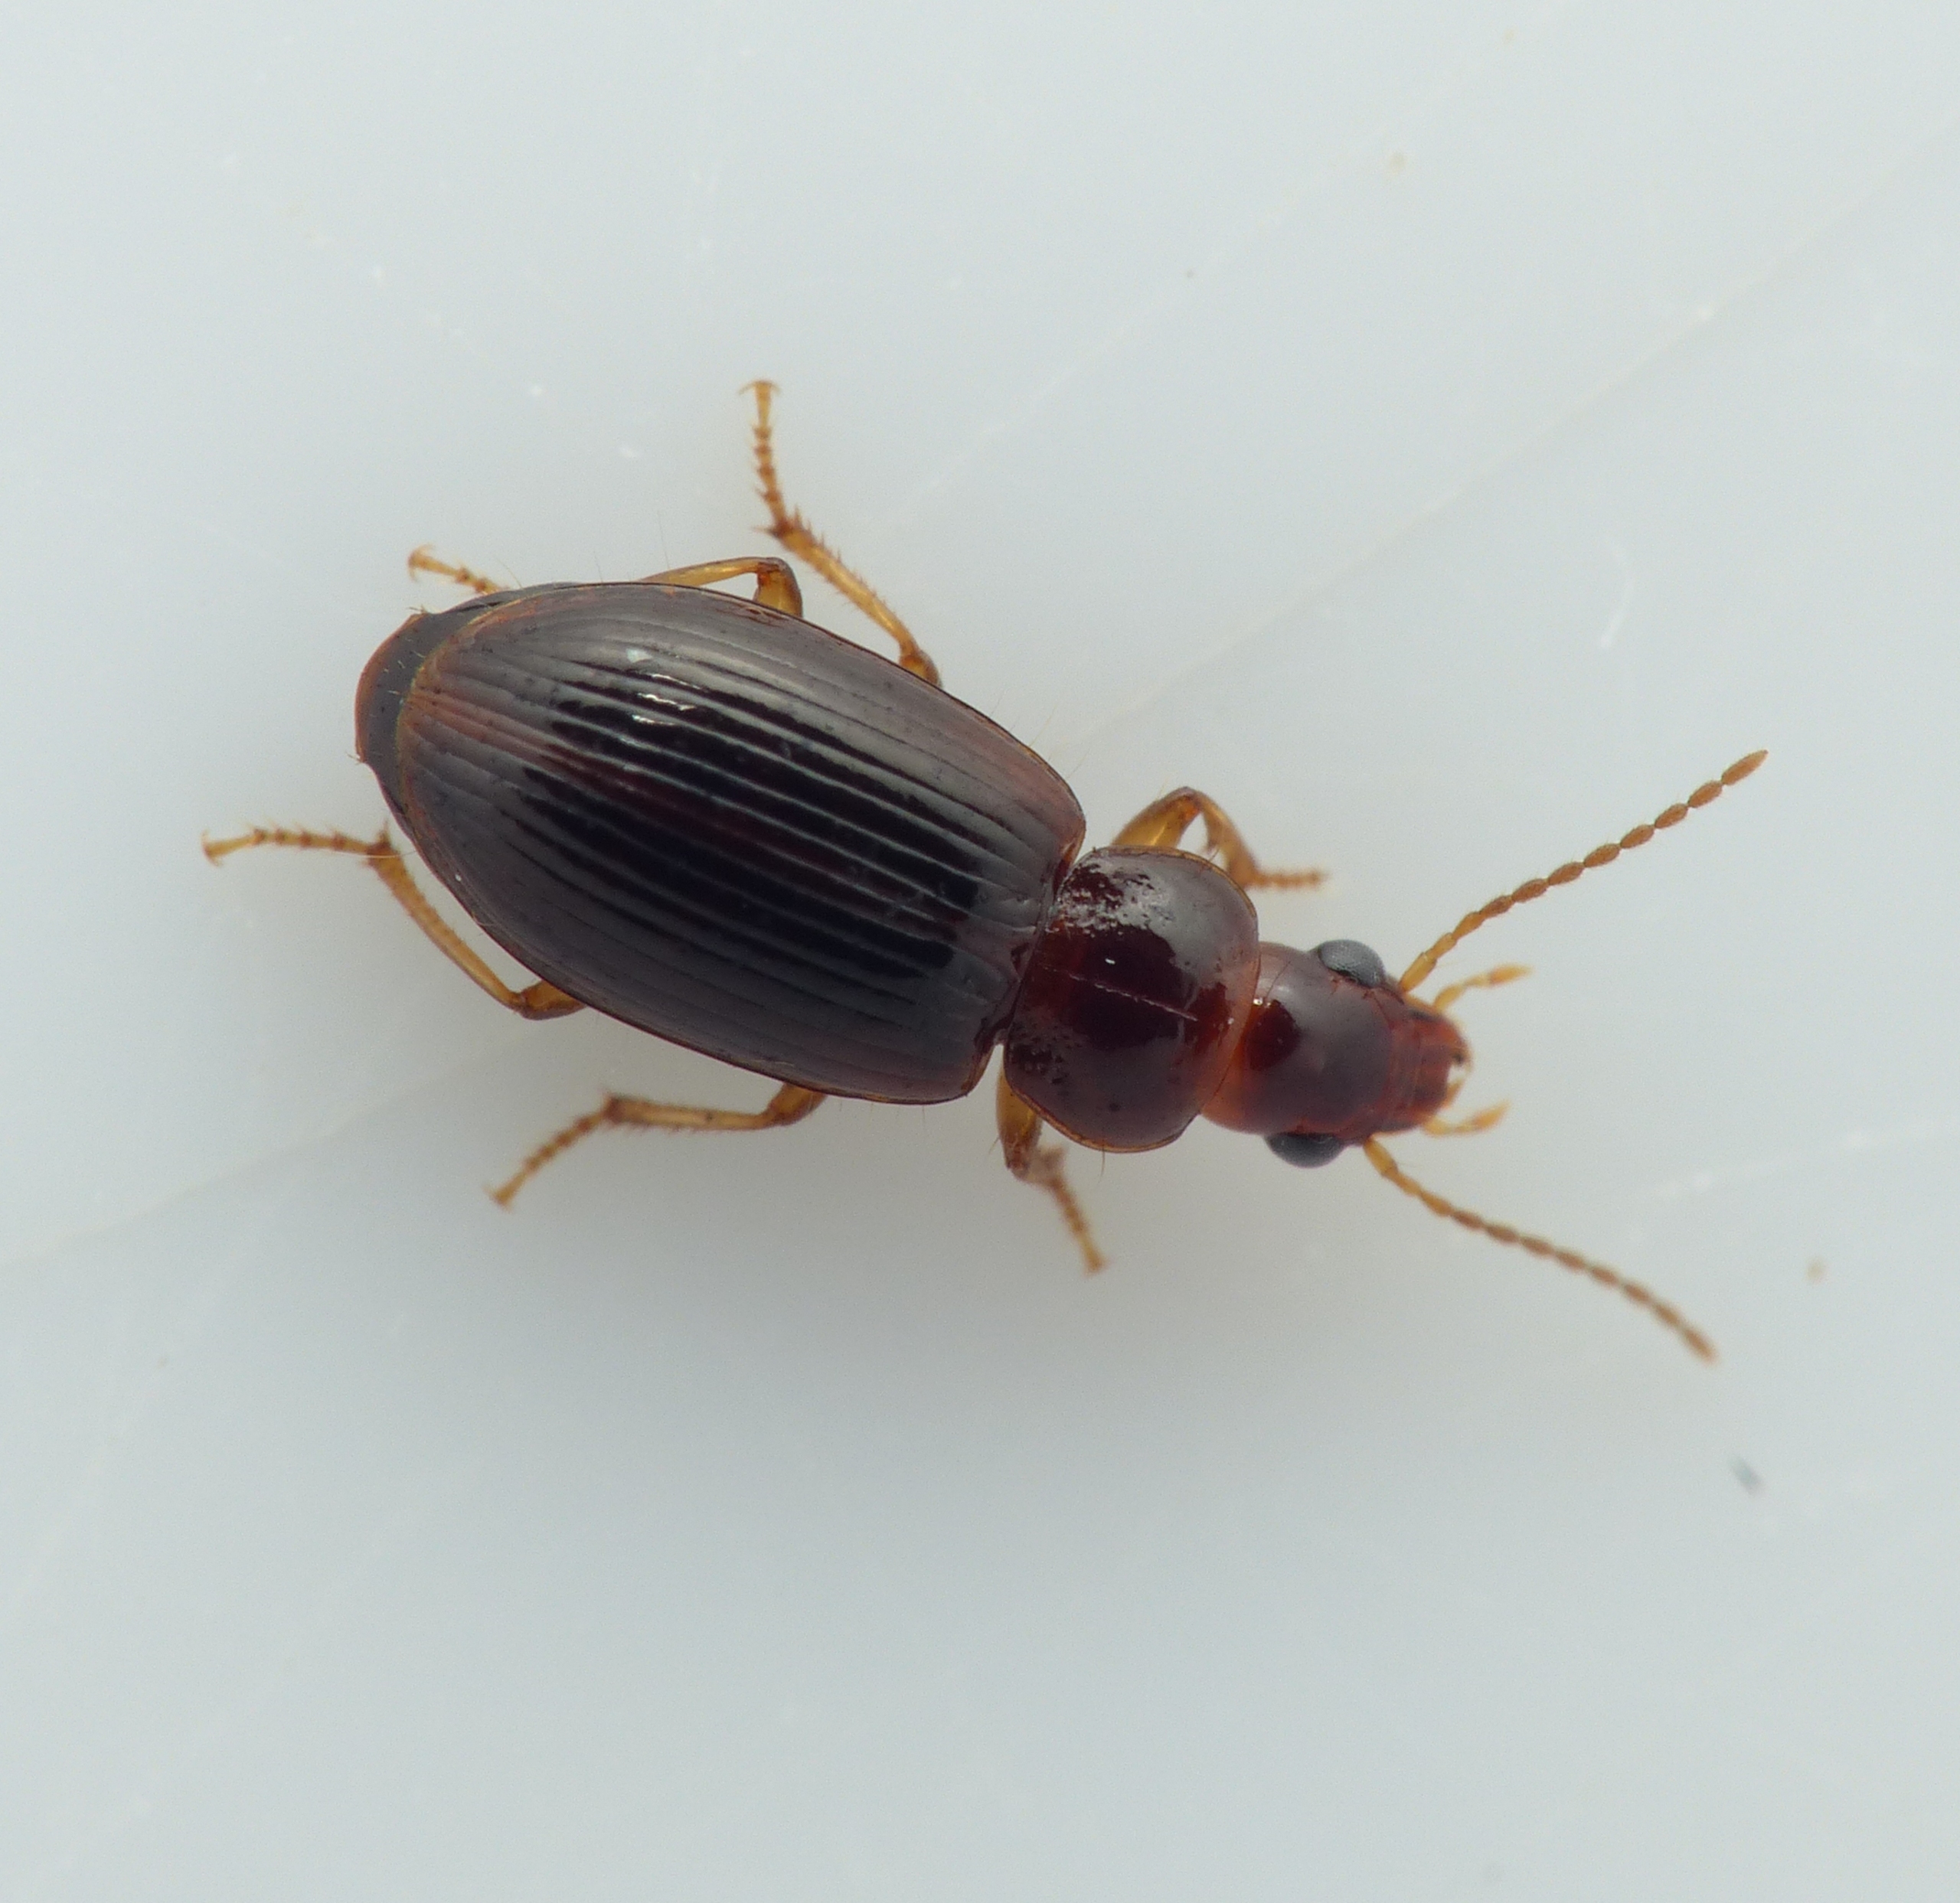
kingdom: Animalia
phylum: Arthropoda
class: Insecta
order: Coleoptera
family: Carabidae
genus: Bradycellus
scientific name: Bradycellus csikii
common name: Mørk brunløber
